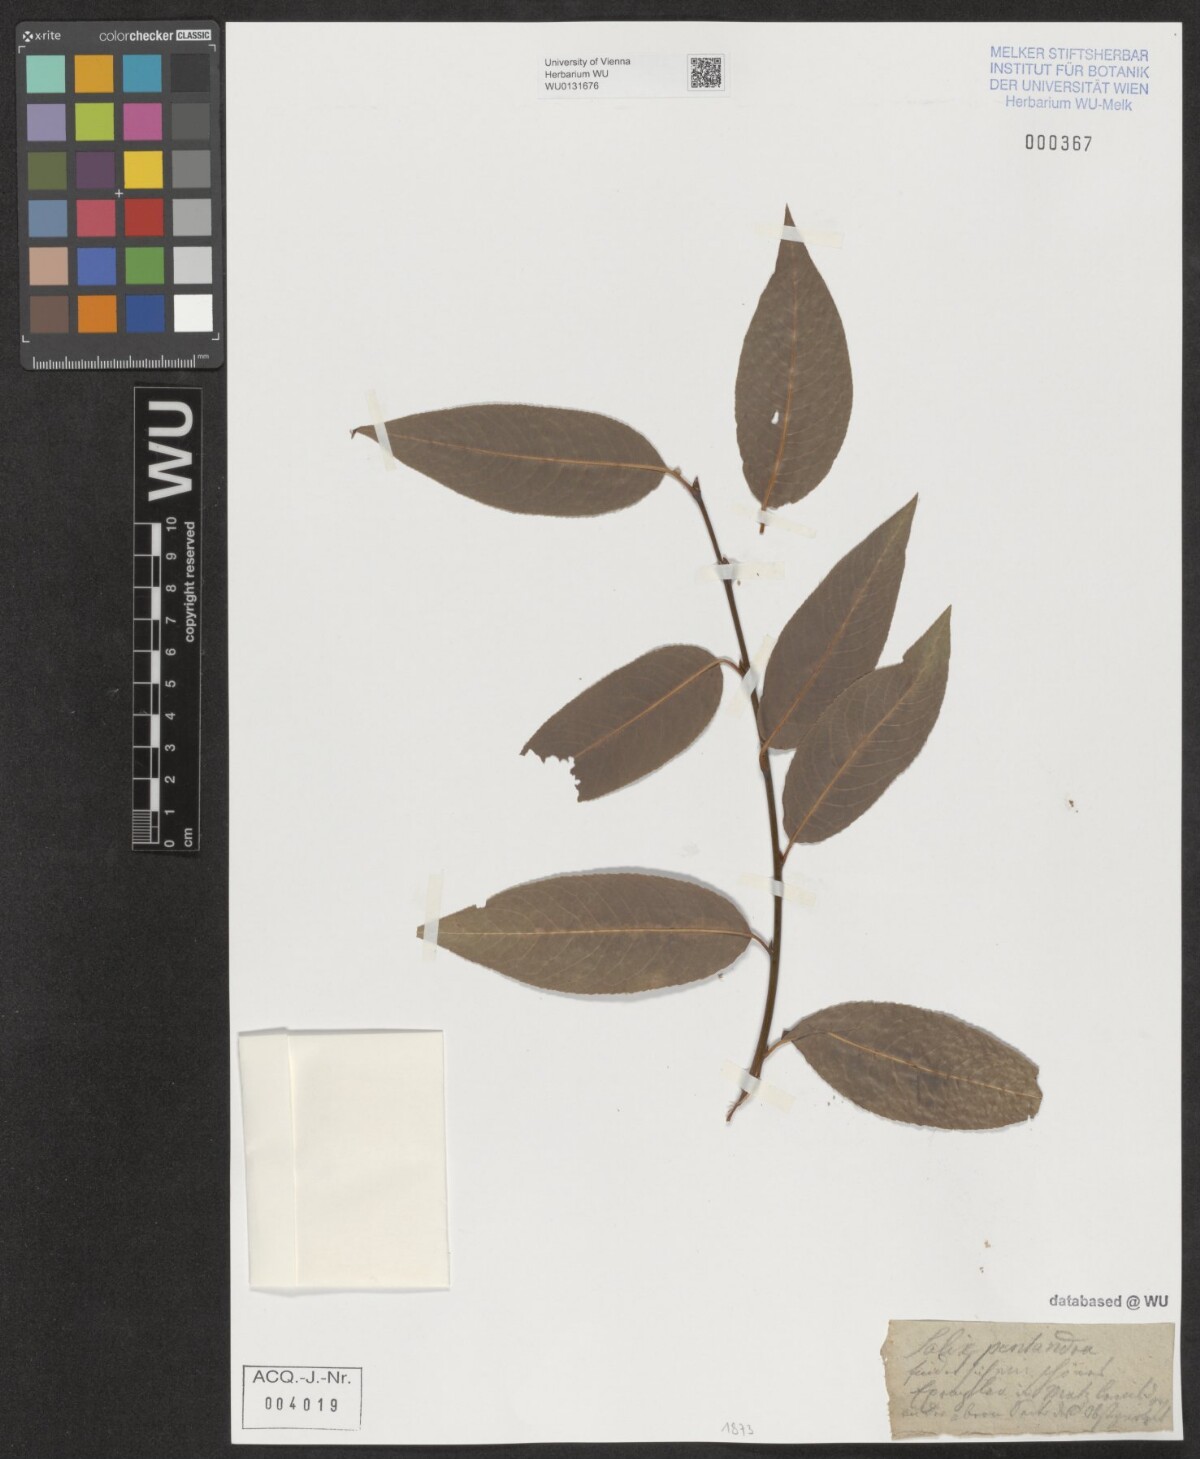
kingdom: Plantae
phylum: Tracheophyta
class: Magnoliopsida
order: Malpighiales
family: Salicaceae
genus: Salix
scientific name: Salix pentandra
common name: Bay willow
